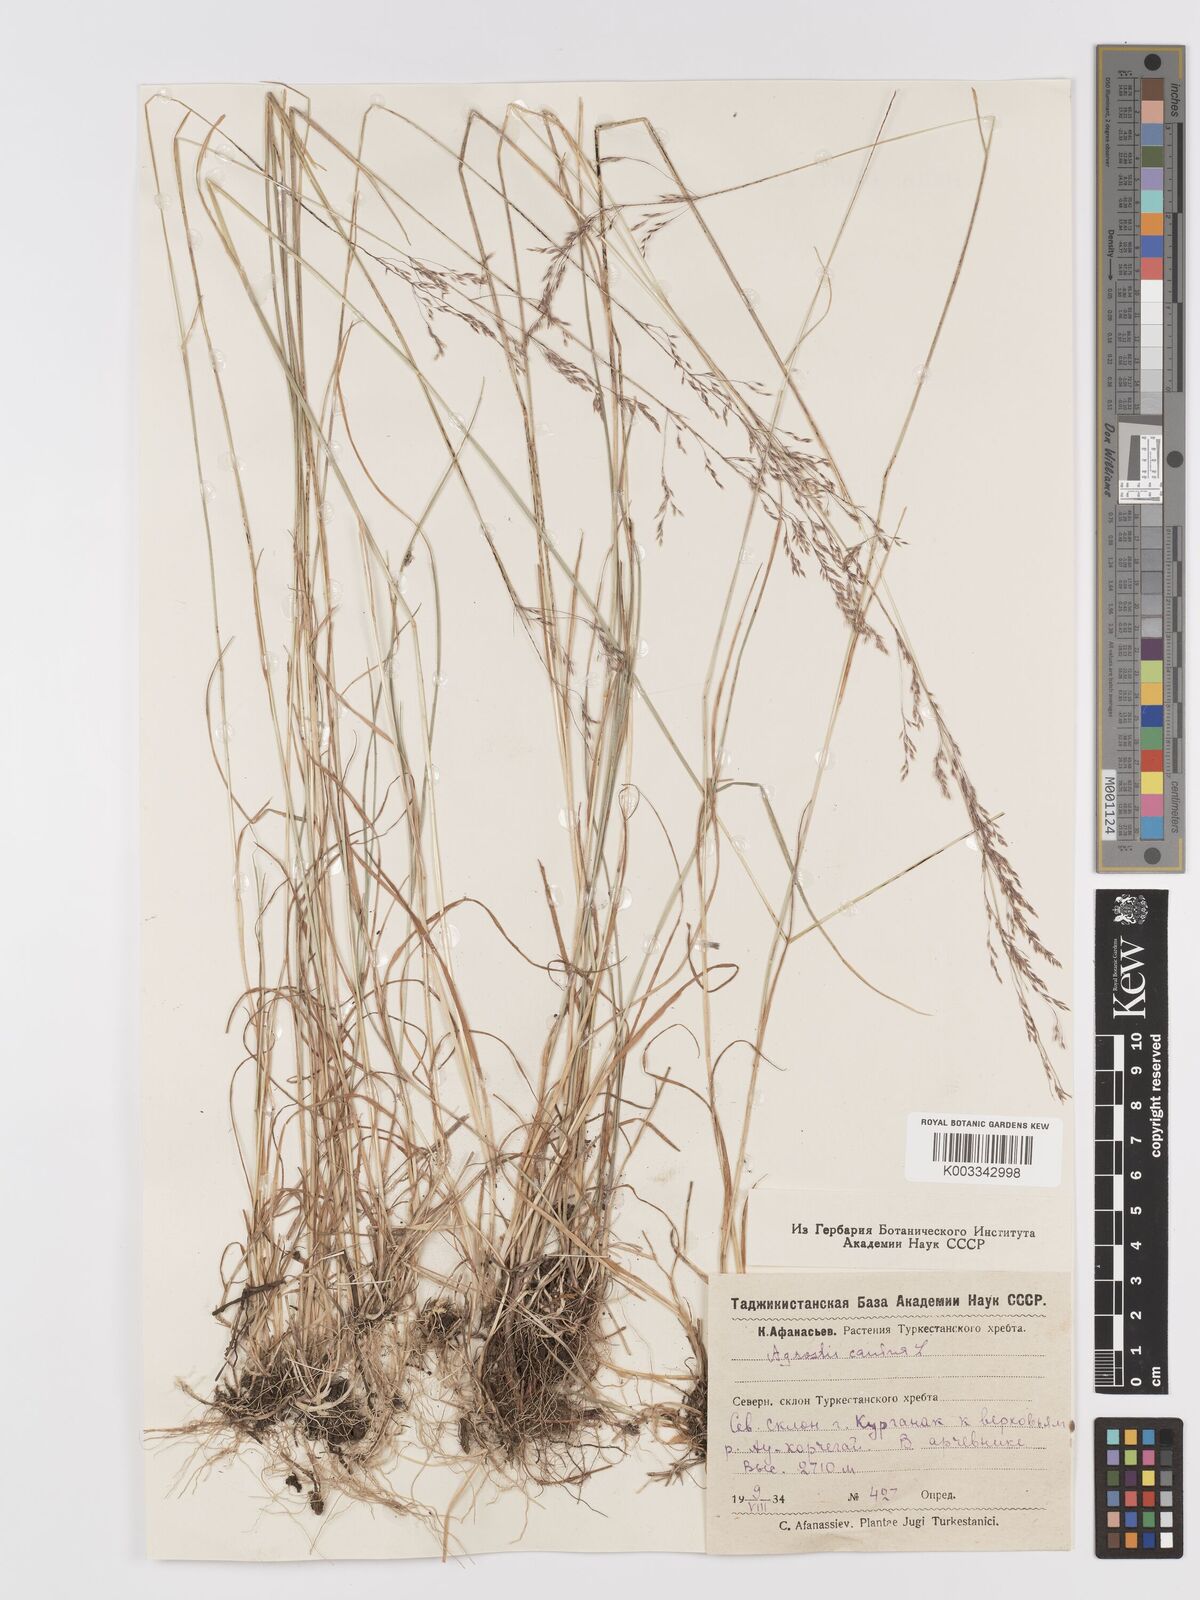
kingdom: Plantae
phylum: Tracheophyta
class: Liliopsida
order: Poales
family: Poaceae
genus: Agrostis
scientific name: Agrostis canina
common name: Velvet bent
